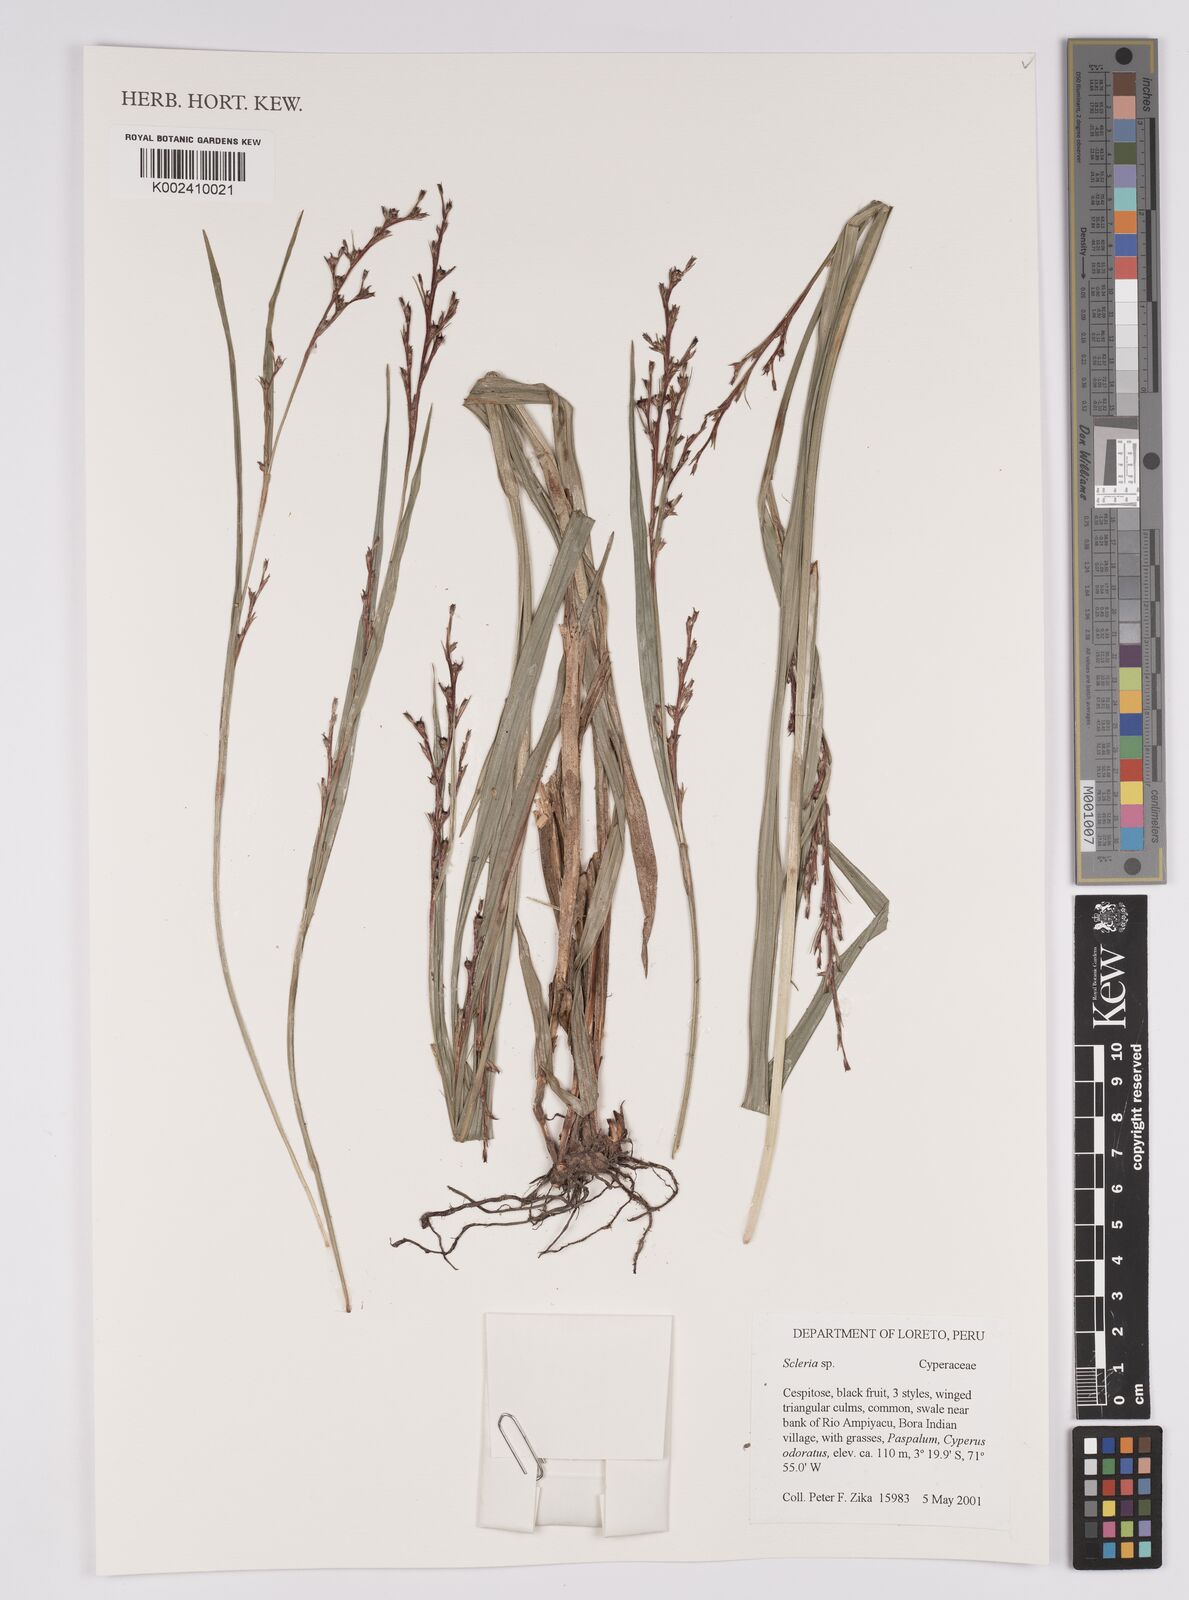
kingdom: Plantae
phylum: Tracheophyta
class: Liliopsida
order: Poales
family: Cyperaceae
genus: Scleria
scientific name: Scleria
